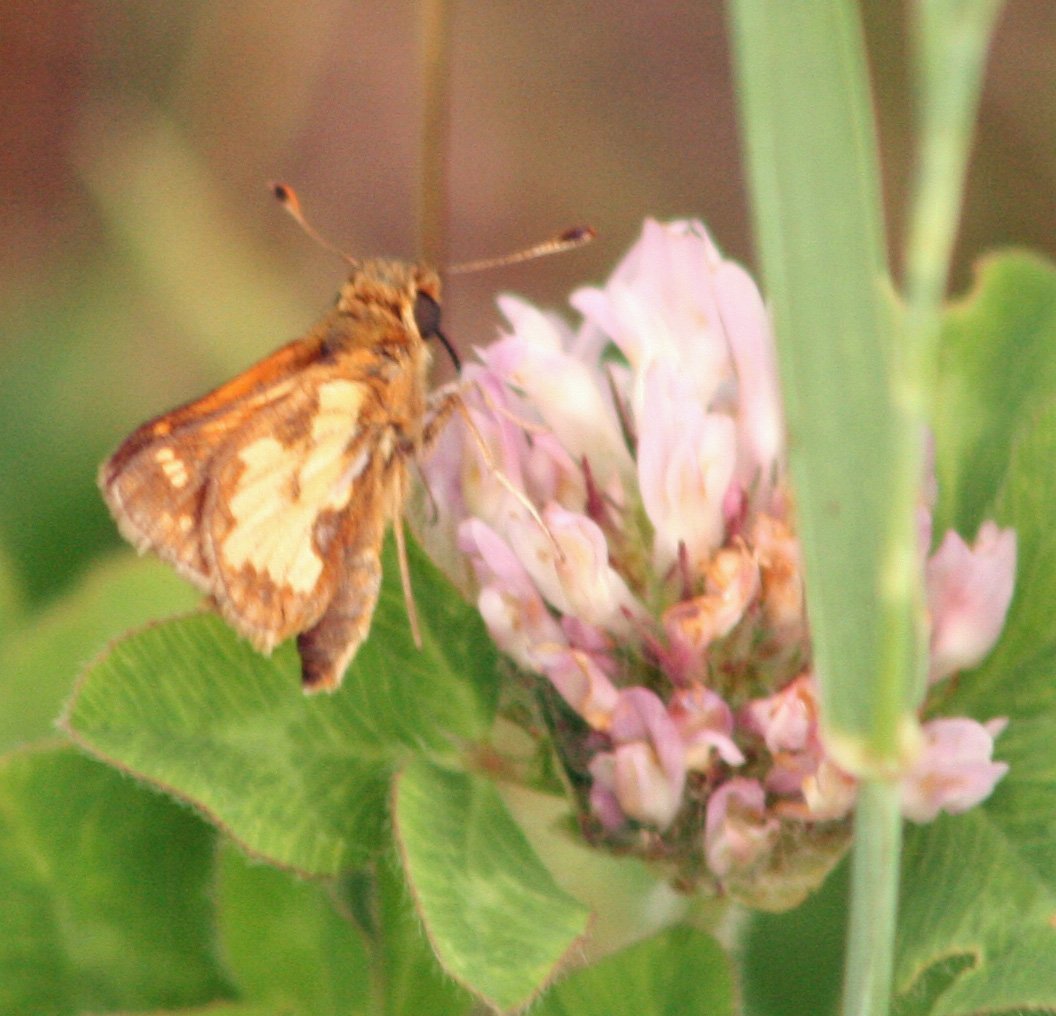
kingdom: Animalia
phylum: Arthropoda
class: Insecta
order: Lepidoptera
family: Hesperiidae
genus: Polites
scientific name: Polites coras
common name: Peck's Skipper
